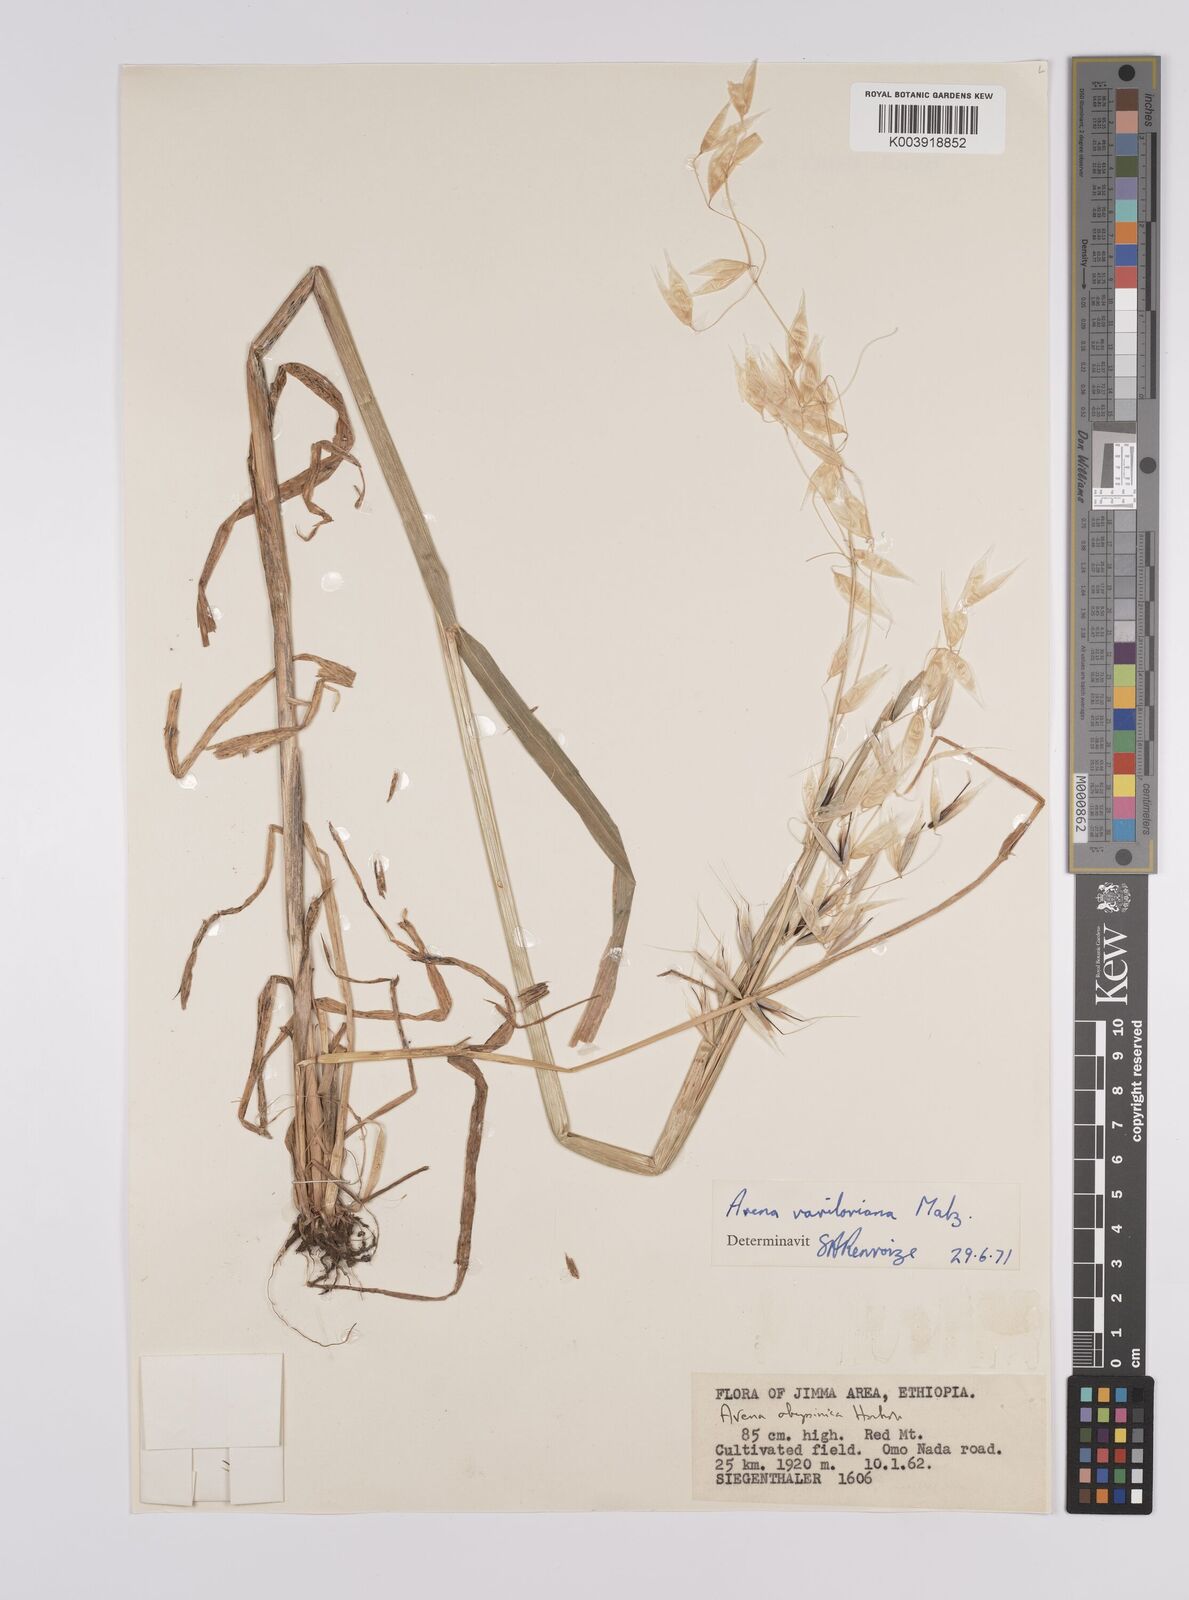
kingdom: Plantae
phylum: Tracheophyta
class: Liliopsida
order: Poales
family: Poaceae
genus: Avena
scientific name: Avena vaviloviana
